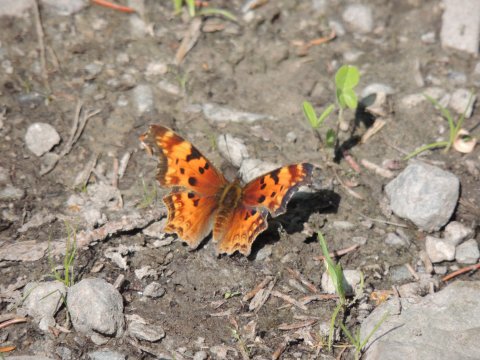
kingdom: Animalia
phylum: Arthropoda
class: Insecta
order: Lepidoptera
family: Nymphalidae
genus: Polygonia
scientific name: Polygonia gracilis
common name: Hoary Comma
